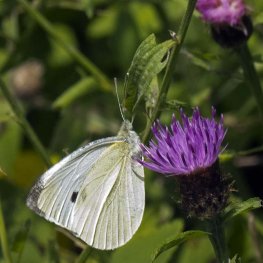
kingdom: Animalia
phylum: Arthropoda
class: Insecta
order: Lepidoptera
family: Pieridae
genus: Pieris
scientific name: Pieris rapae
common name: Cabbage White
